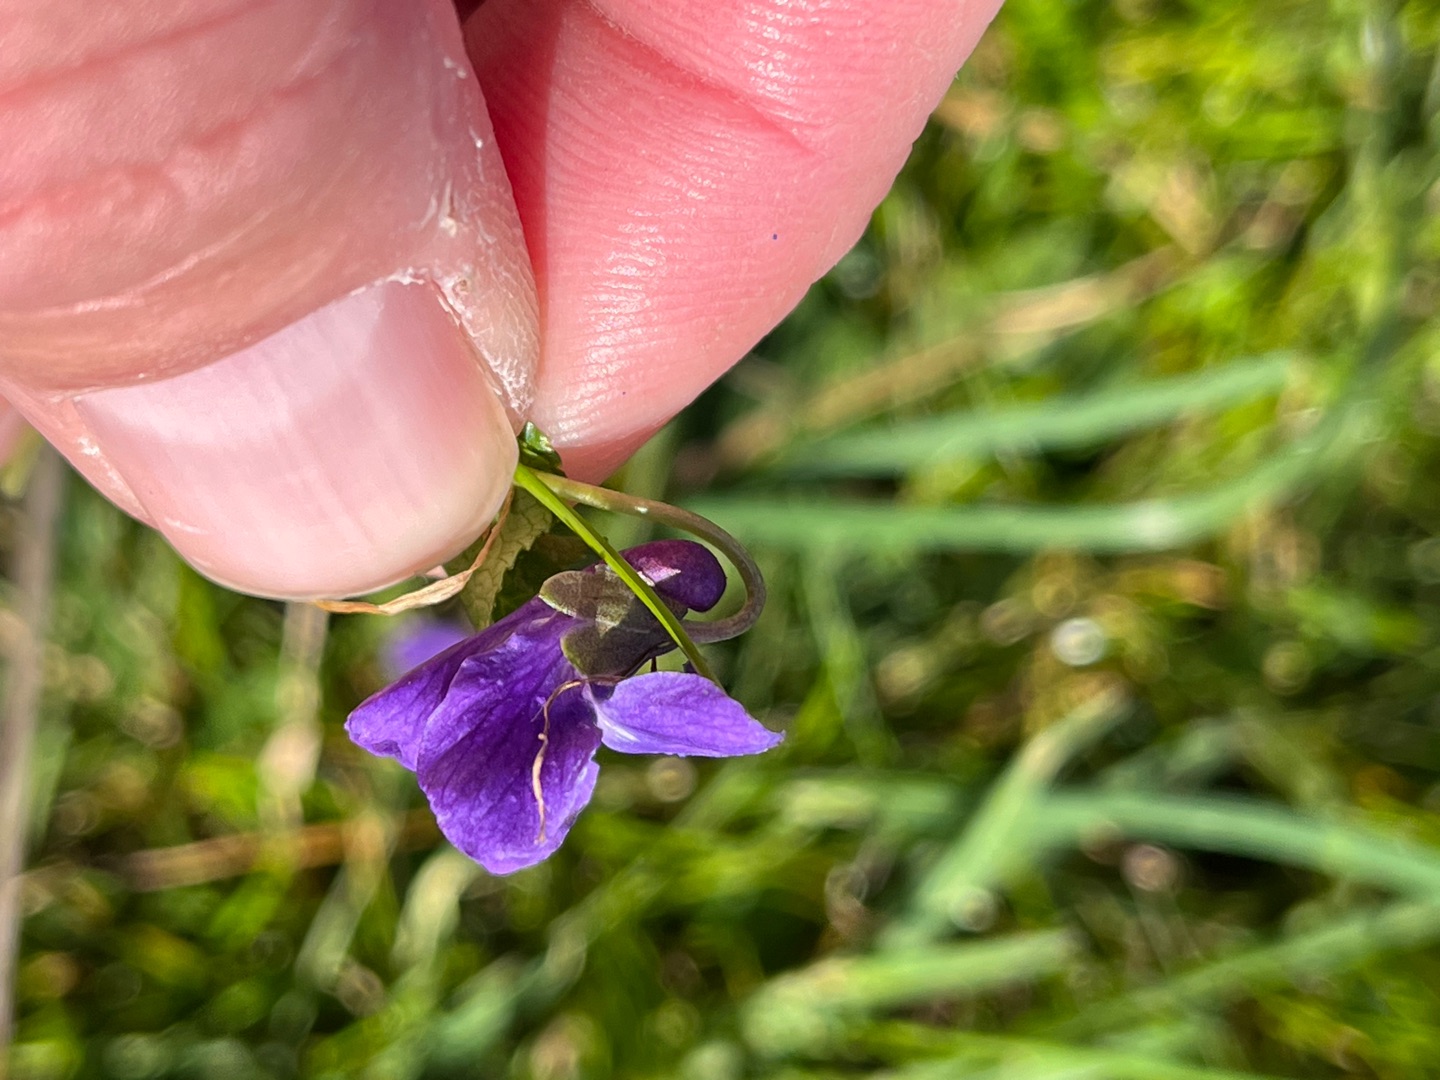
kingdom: Plantae
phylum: Tracheophyta
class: Magnoliopsida
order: Malpighiales
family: Violaceae
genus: Viola
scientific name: Viola odorata
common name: Marts-viol
